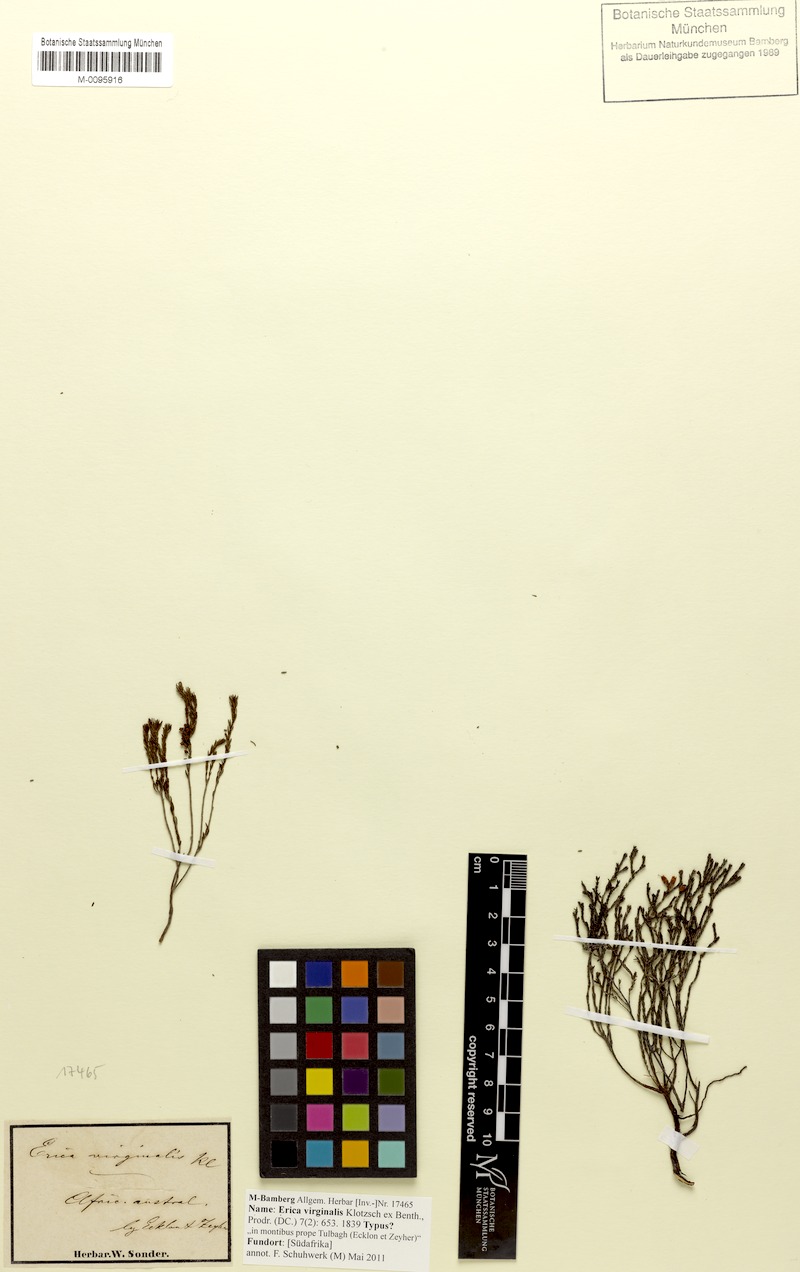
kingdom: Plantae
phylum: Tracheophyta
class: Magnoliopsida
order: Ericales
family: Ericaceae
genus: Erica
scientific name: Erica virginalis
